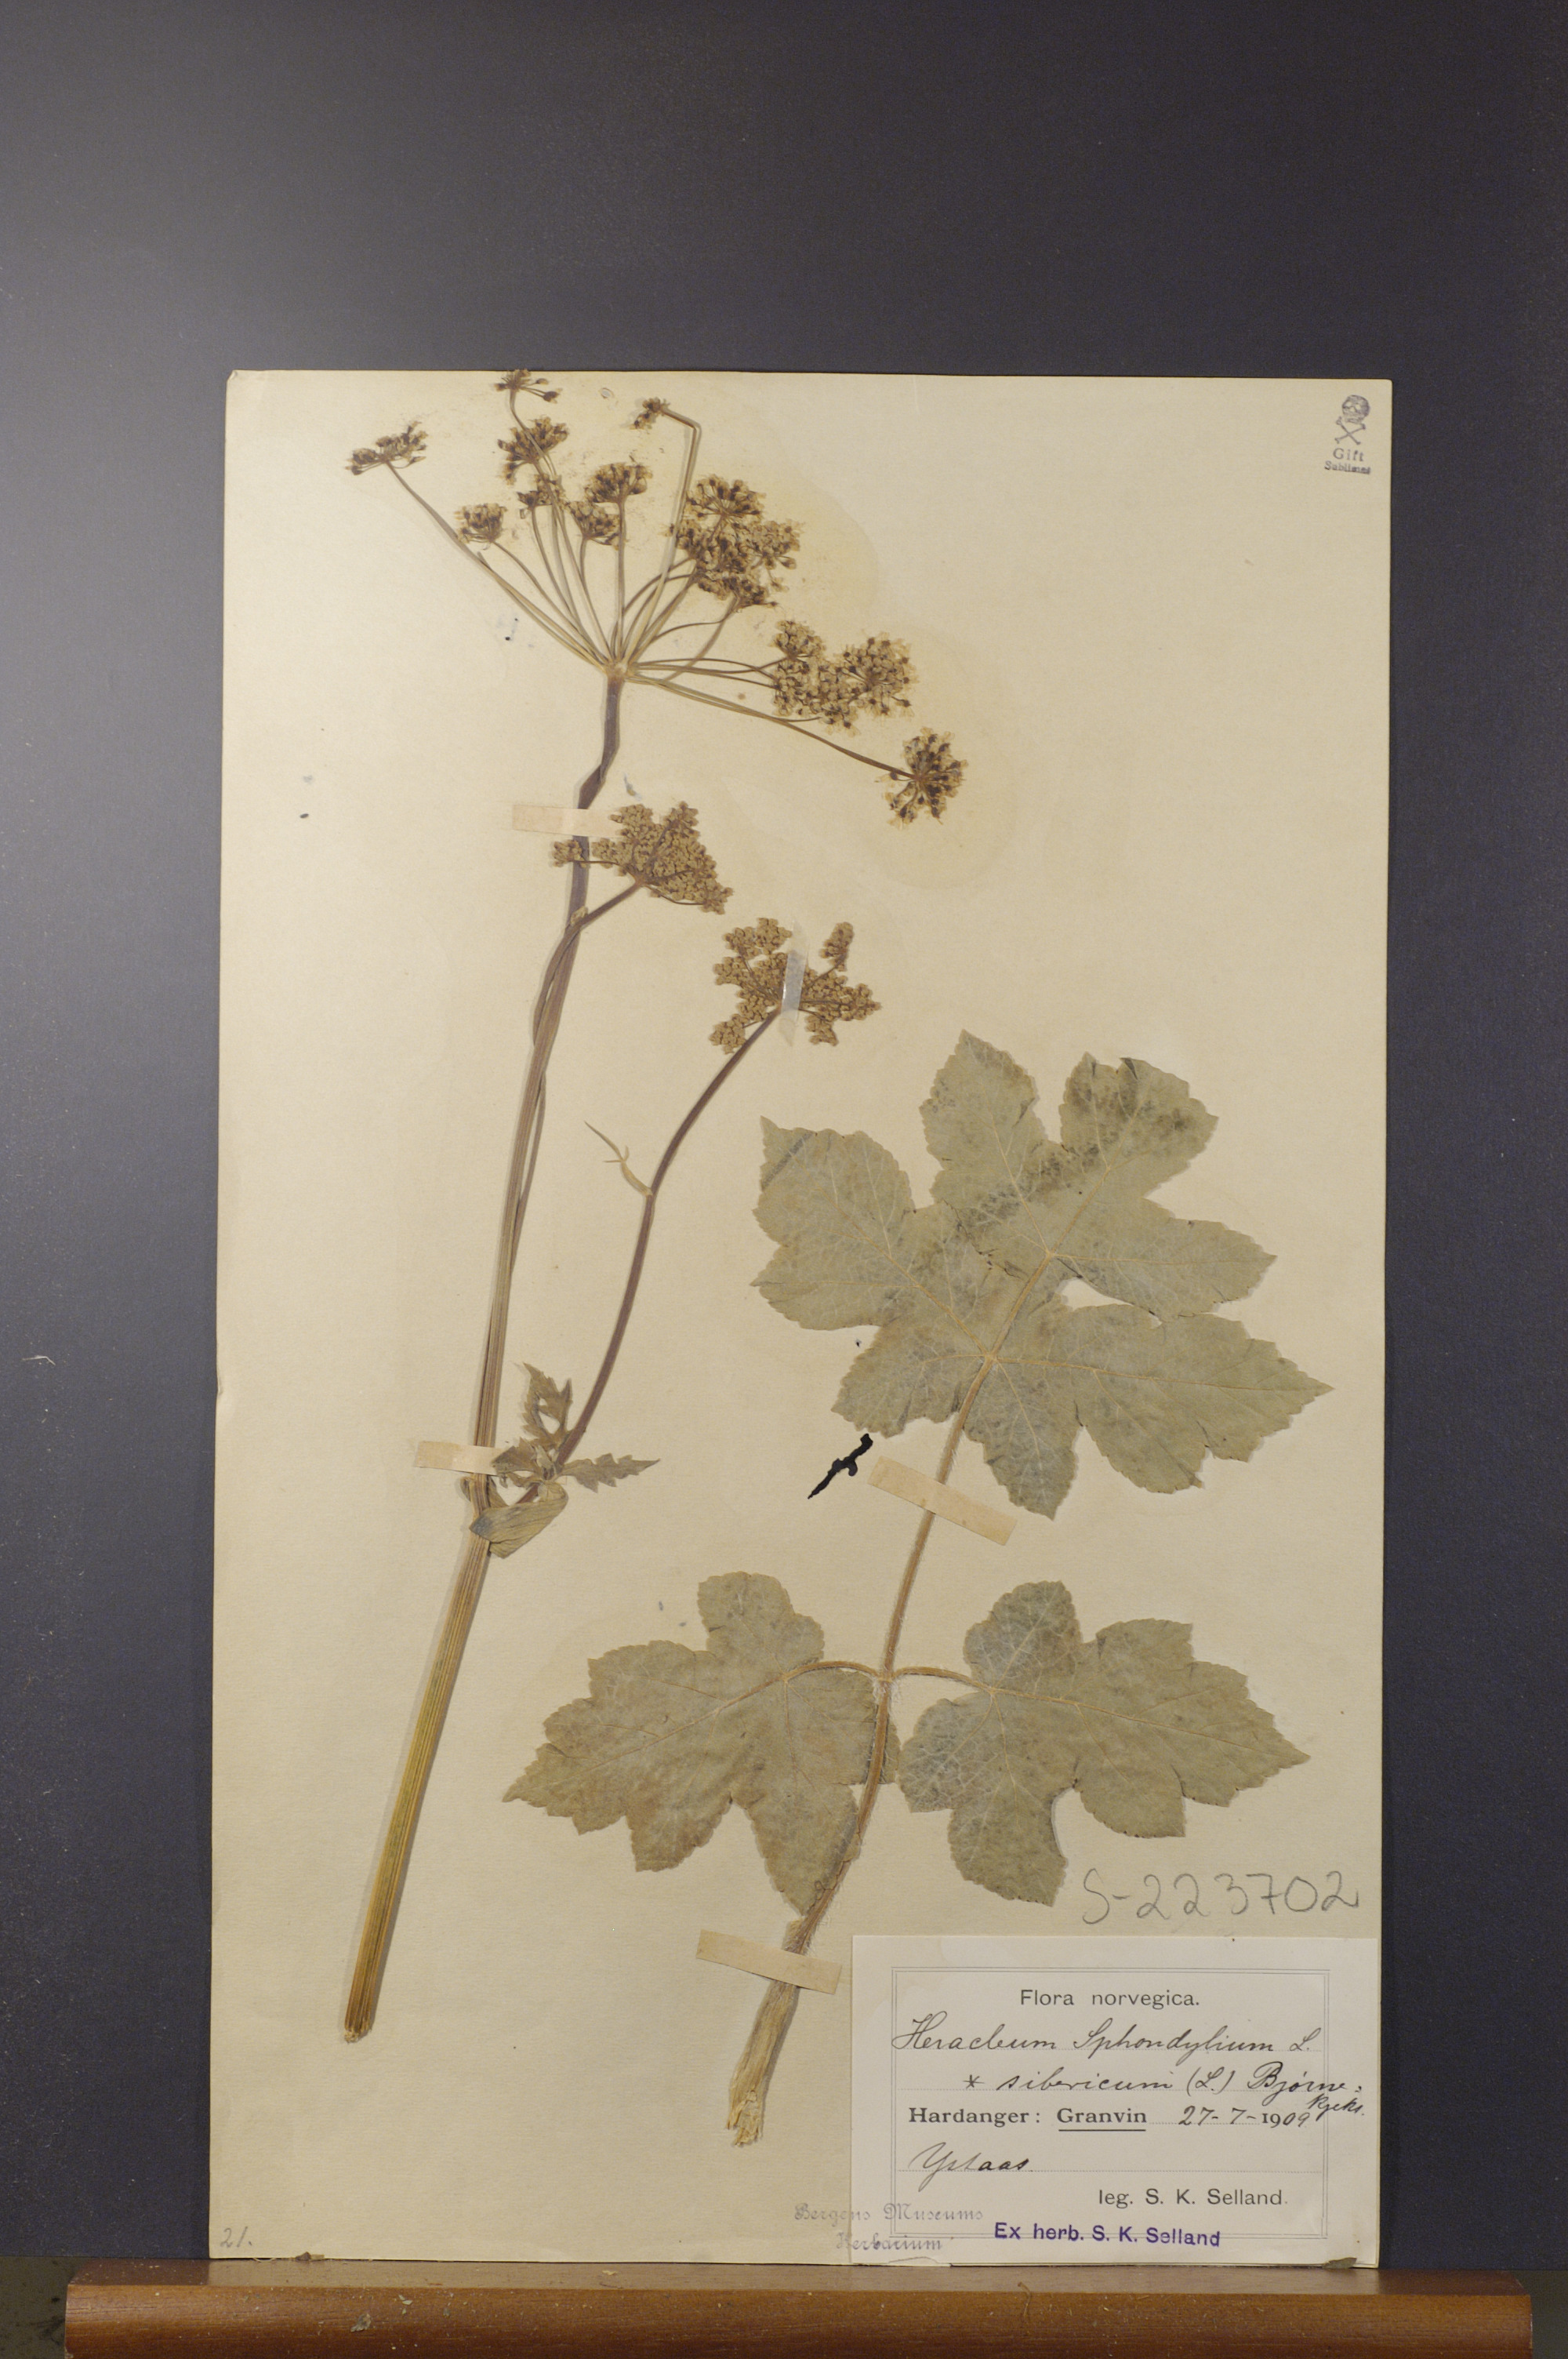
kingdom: Plantae
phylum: Tracheophyta
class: Magnoliopsida
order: Apiales
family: Apiaceae
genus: Heracleum
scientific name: Heracleum sphondylium
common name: Hogweed
